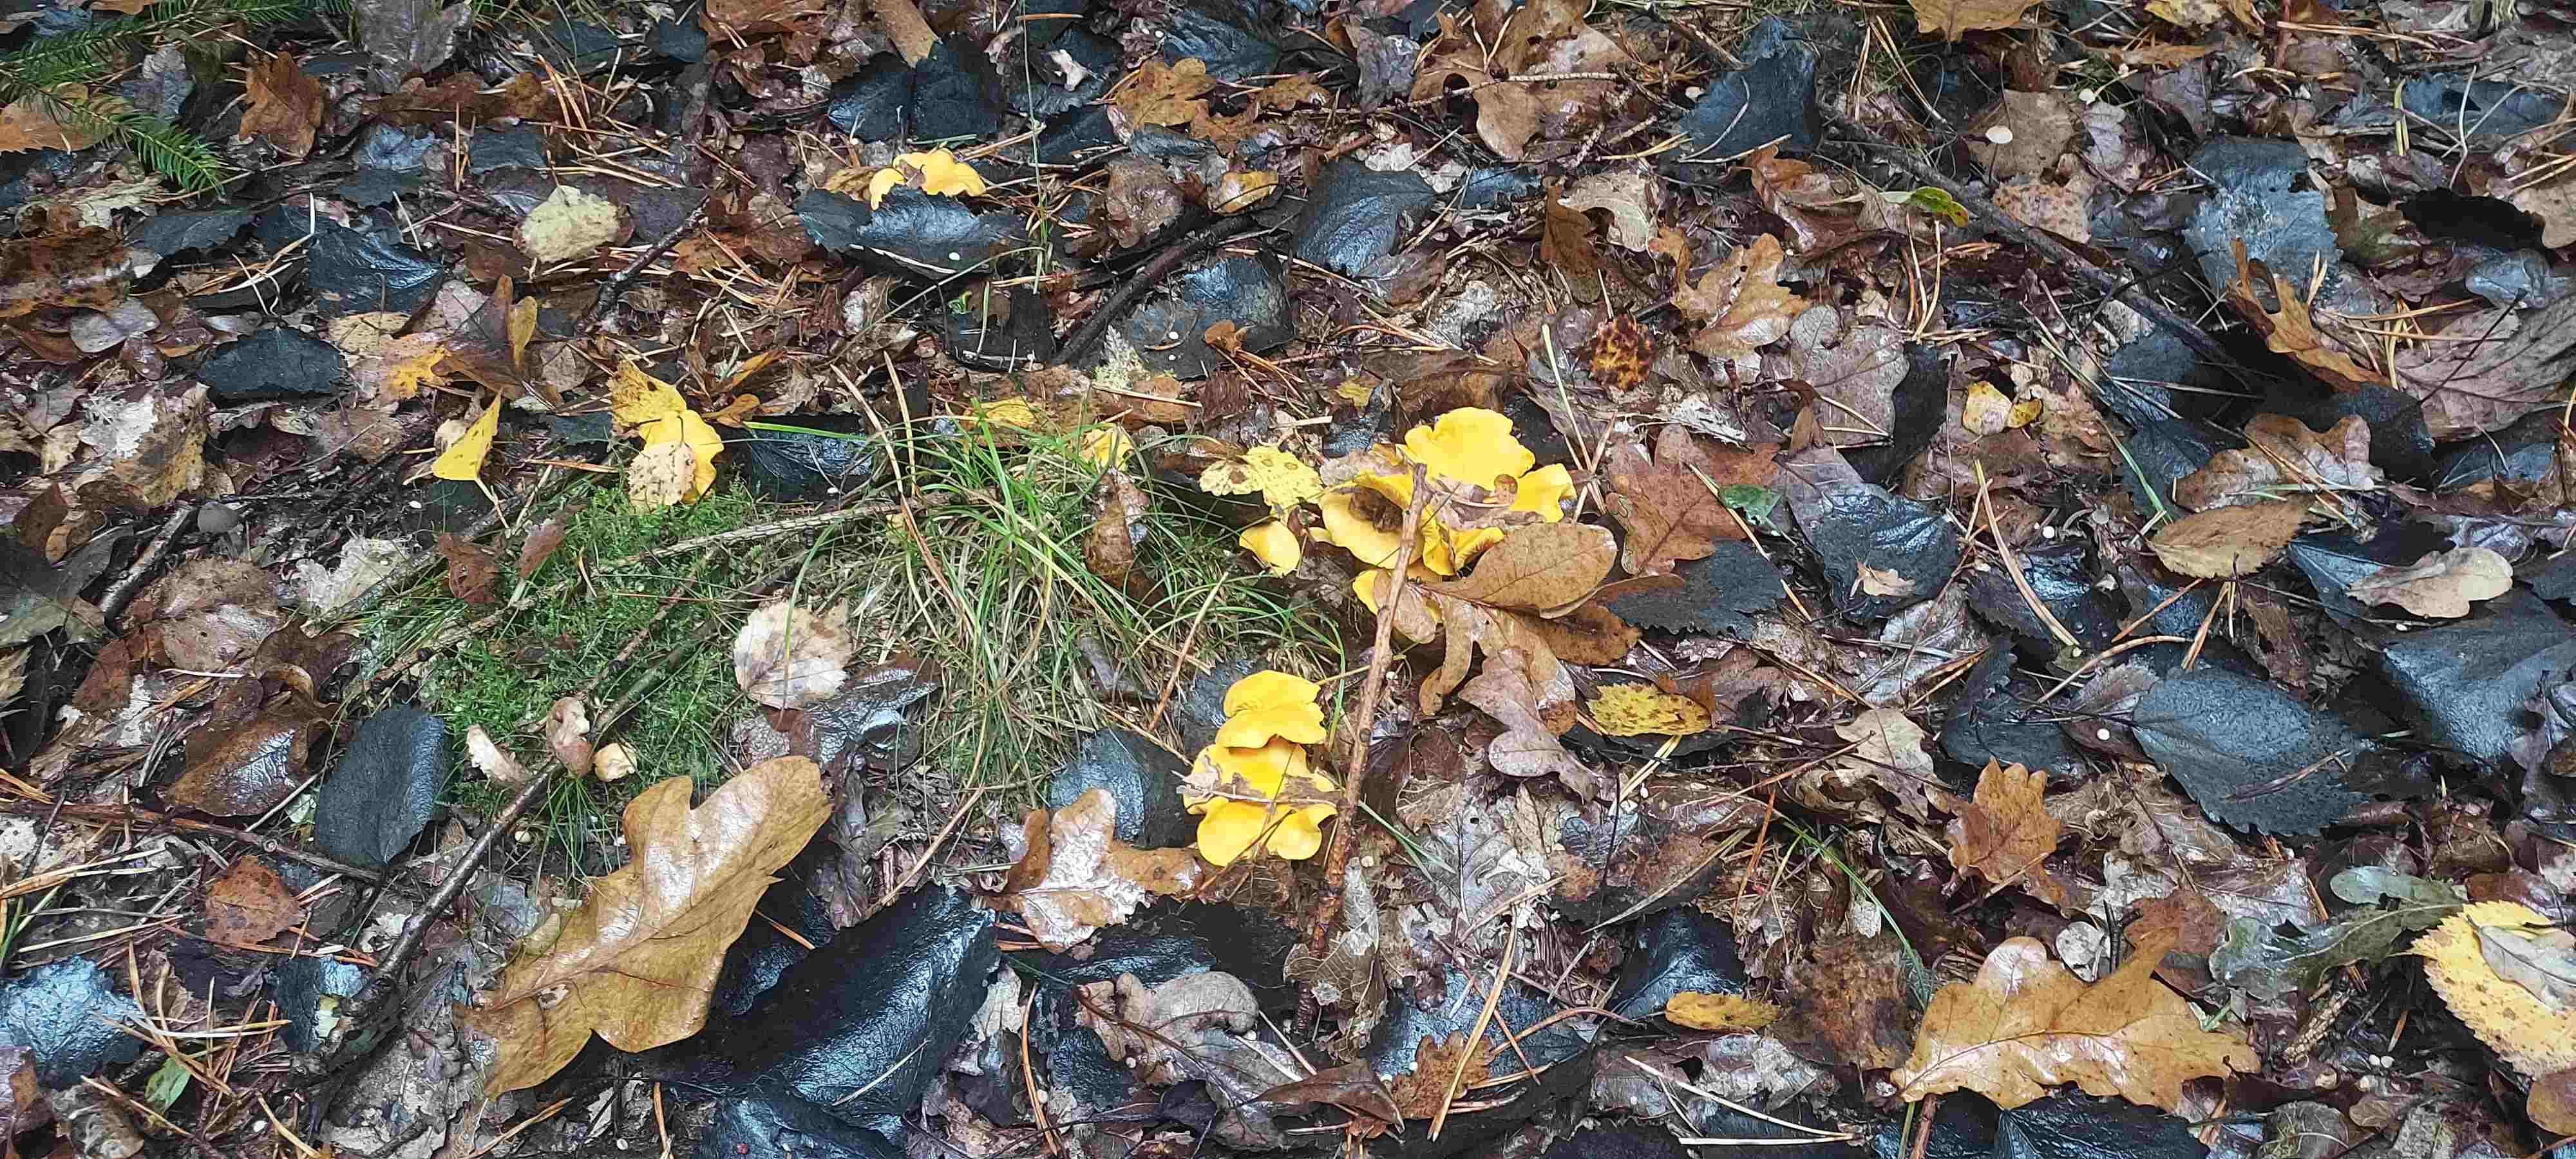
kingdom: Fungi
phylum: Basidiomycota
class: Agaricomycetes
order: Cantharellales
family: Hydnaceae
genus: Cantharellus
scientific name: Cantharellus cibarius
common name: almindelig kantarel
